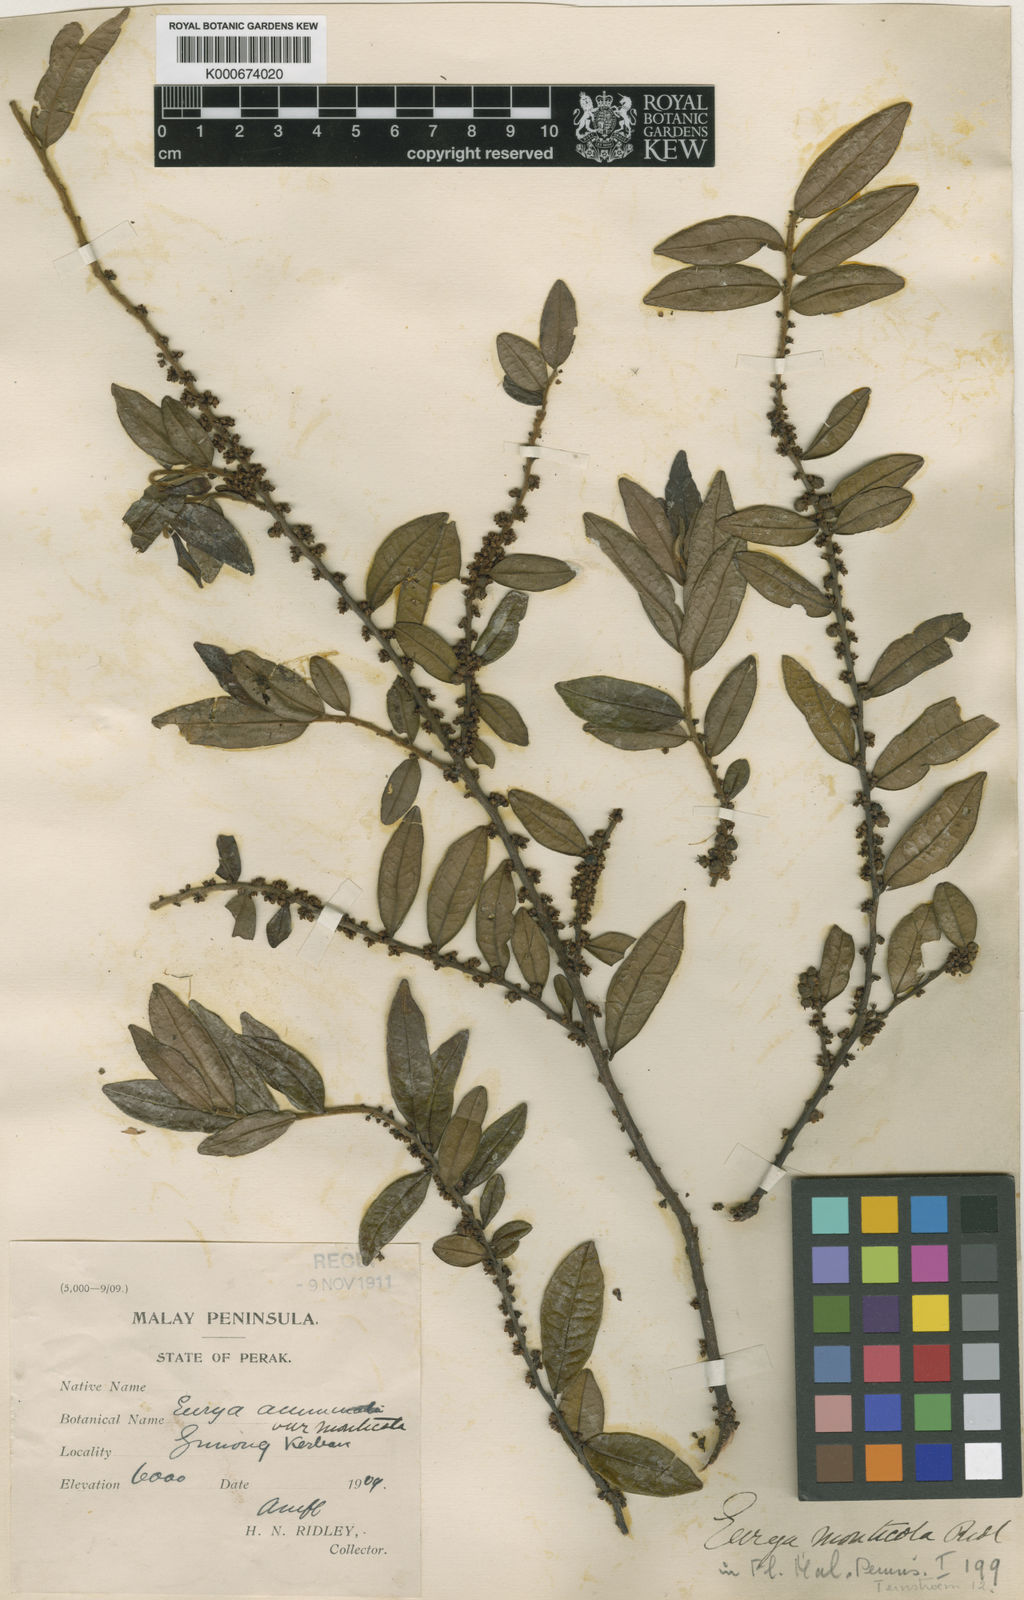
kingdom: Plantae
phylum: Tracheophyta
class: Magnoliopsida
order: Ericales
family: Pentaphylacaceae
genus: Eurya
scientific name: Eurya acuminata
